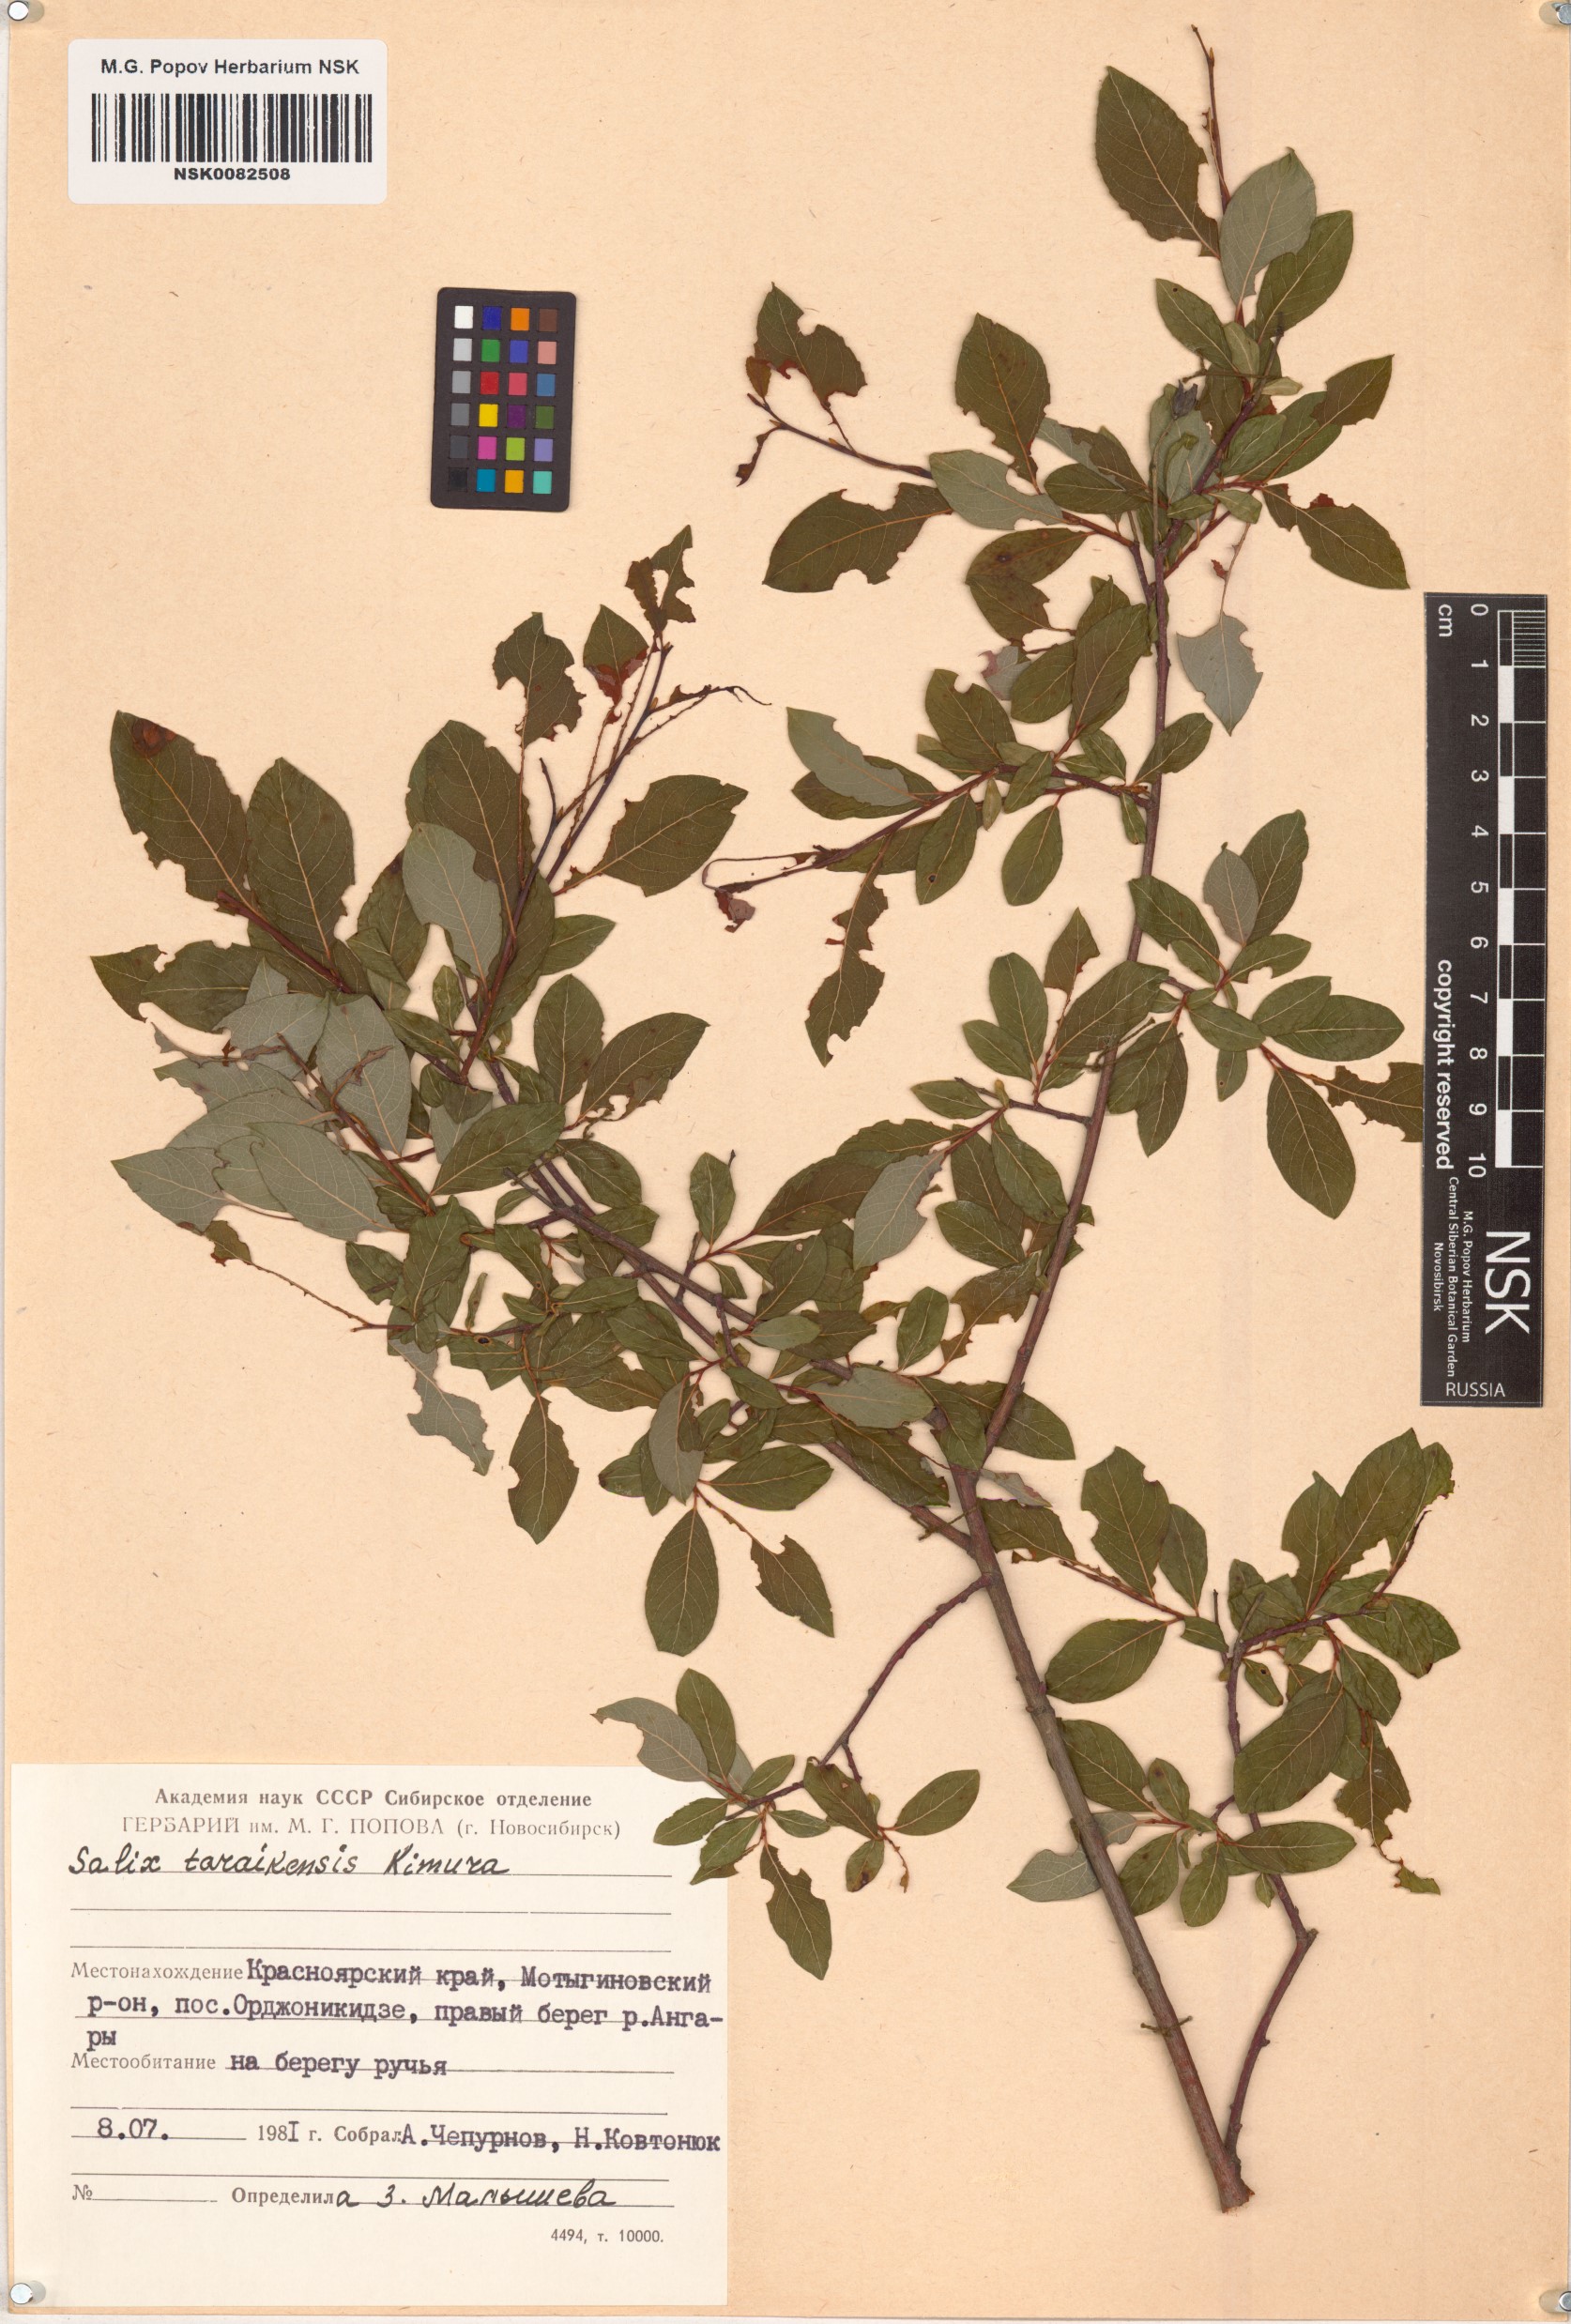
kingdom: Plantae
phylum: Tracheophyta
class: Magnoliopsida
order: Malpighiales
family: Salicaceae
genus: Salix
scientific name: Salix taraikensis
